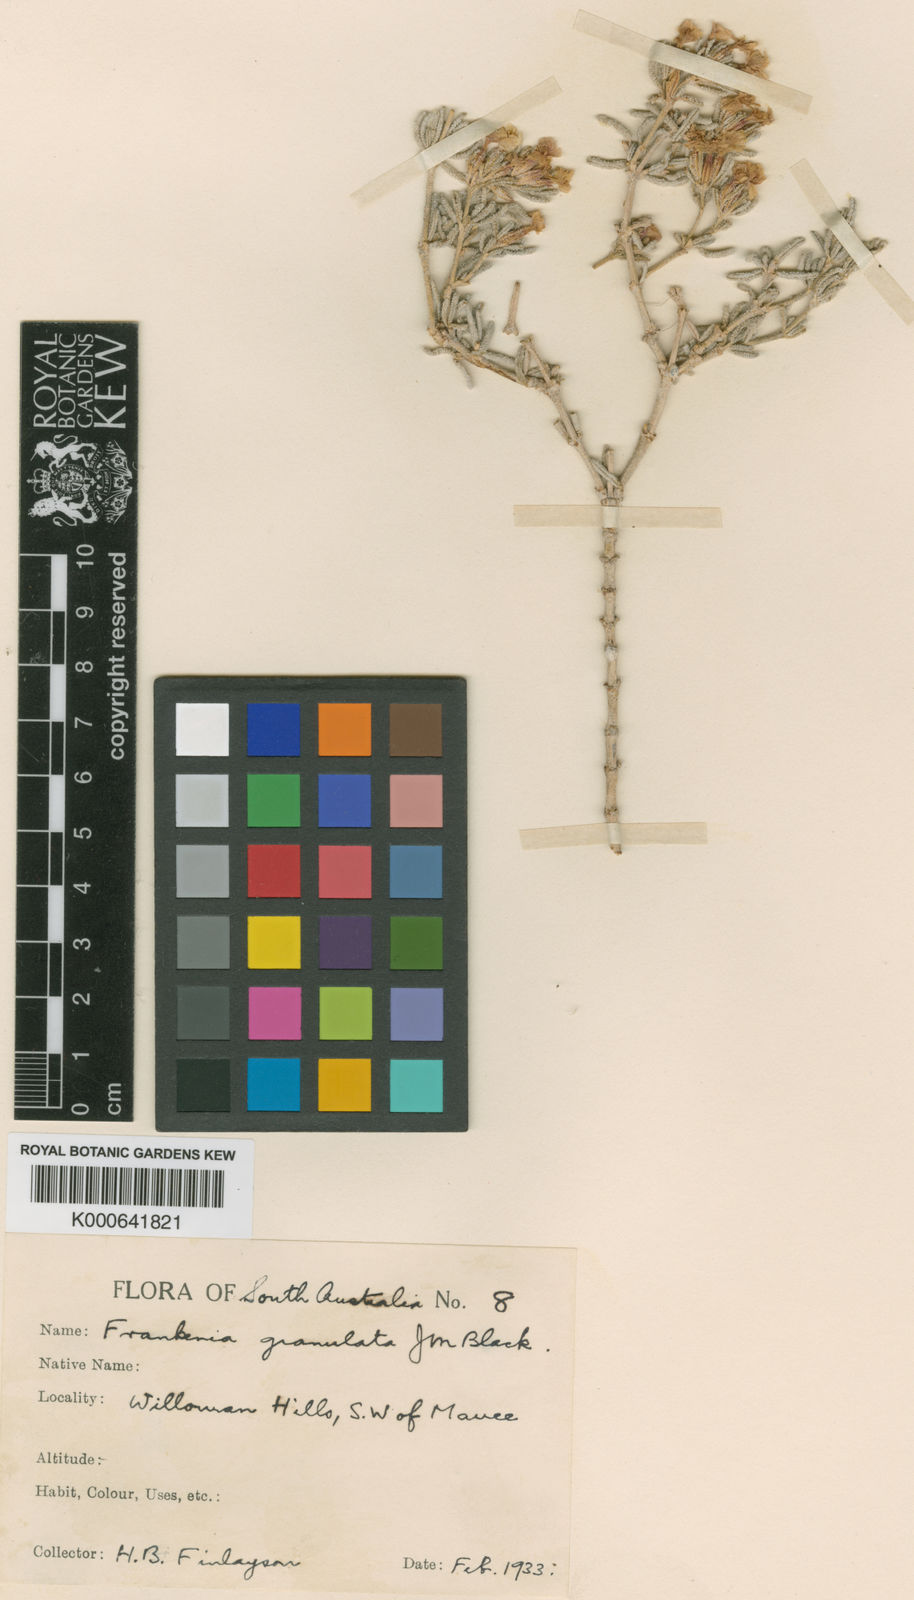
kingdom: Plantae
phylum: Tracheophyta
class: Magnoliopsida
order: Caryophyllales
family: Frankeniaceae
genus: Frankenia
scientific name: Frankenia subteres
